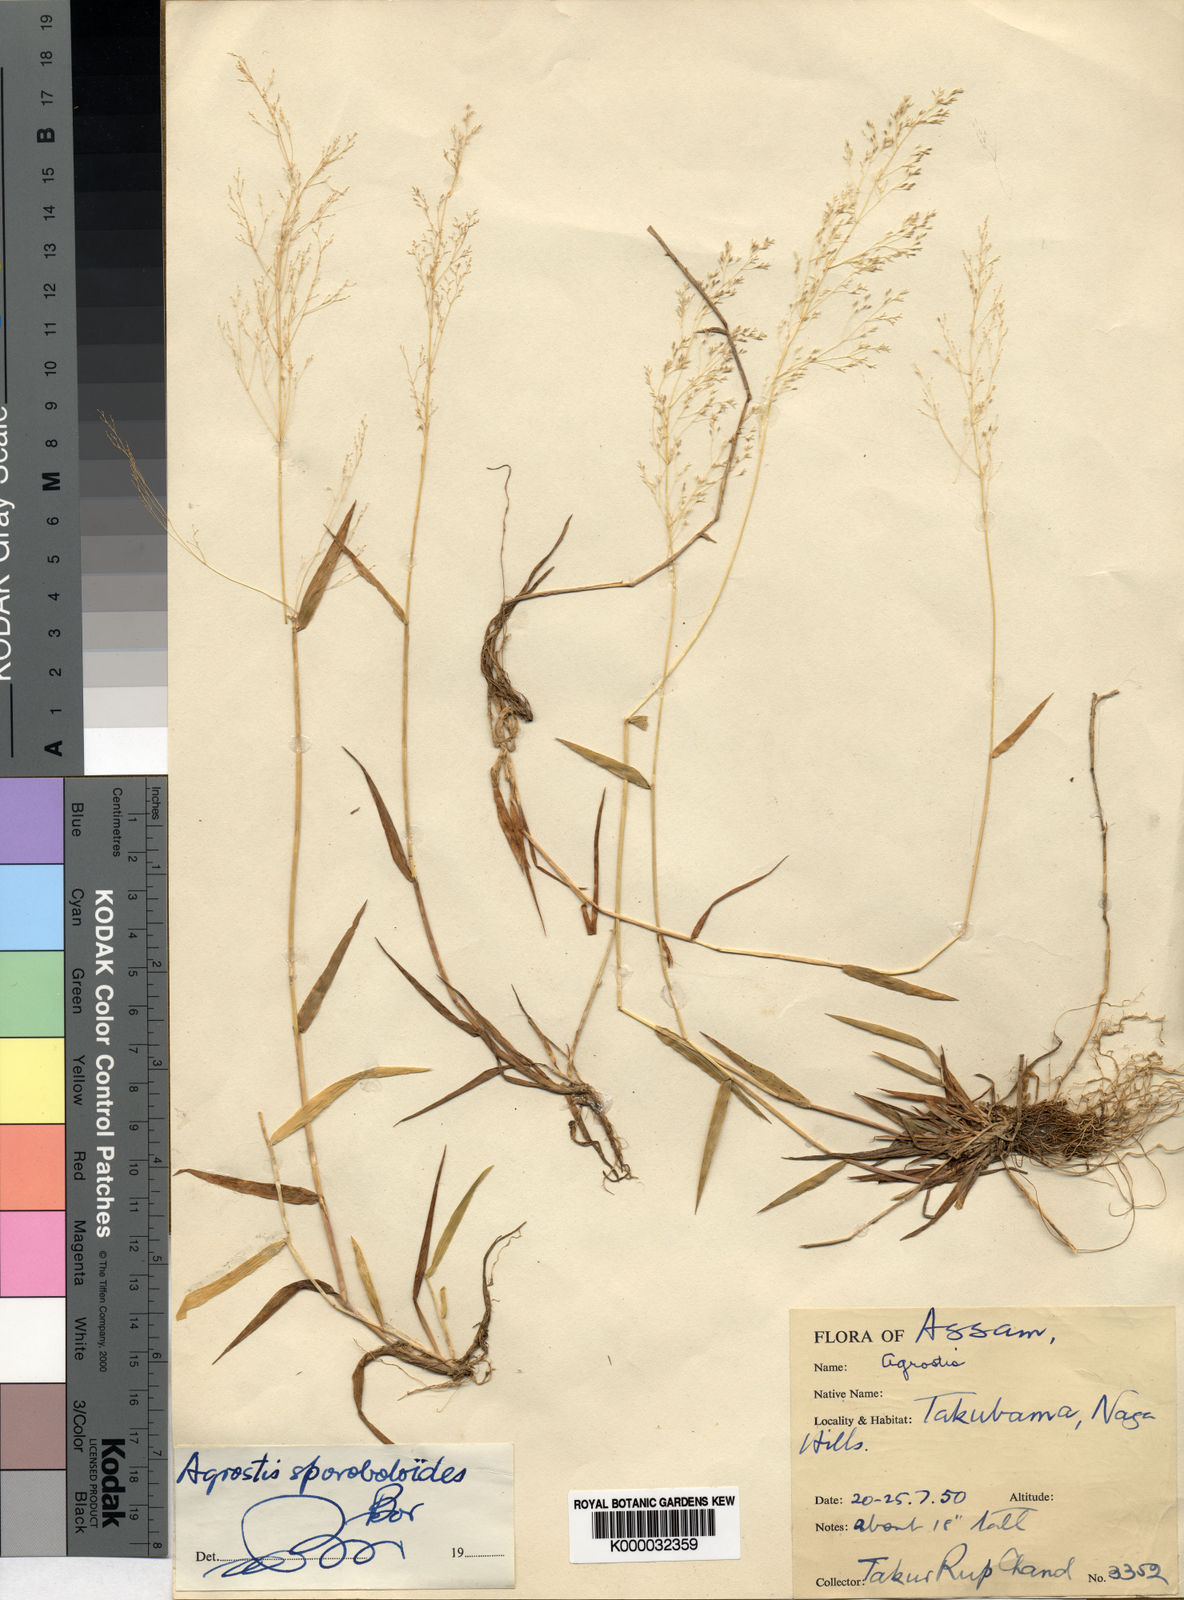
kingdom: Plantae
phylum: Tracheophyta
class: Liliopsida
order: Poales
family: Poaceae
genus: Agrostis
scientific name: Agrostis
